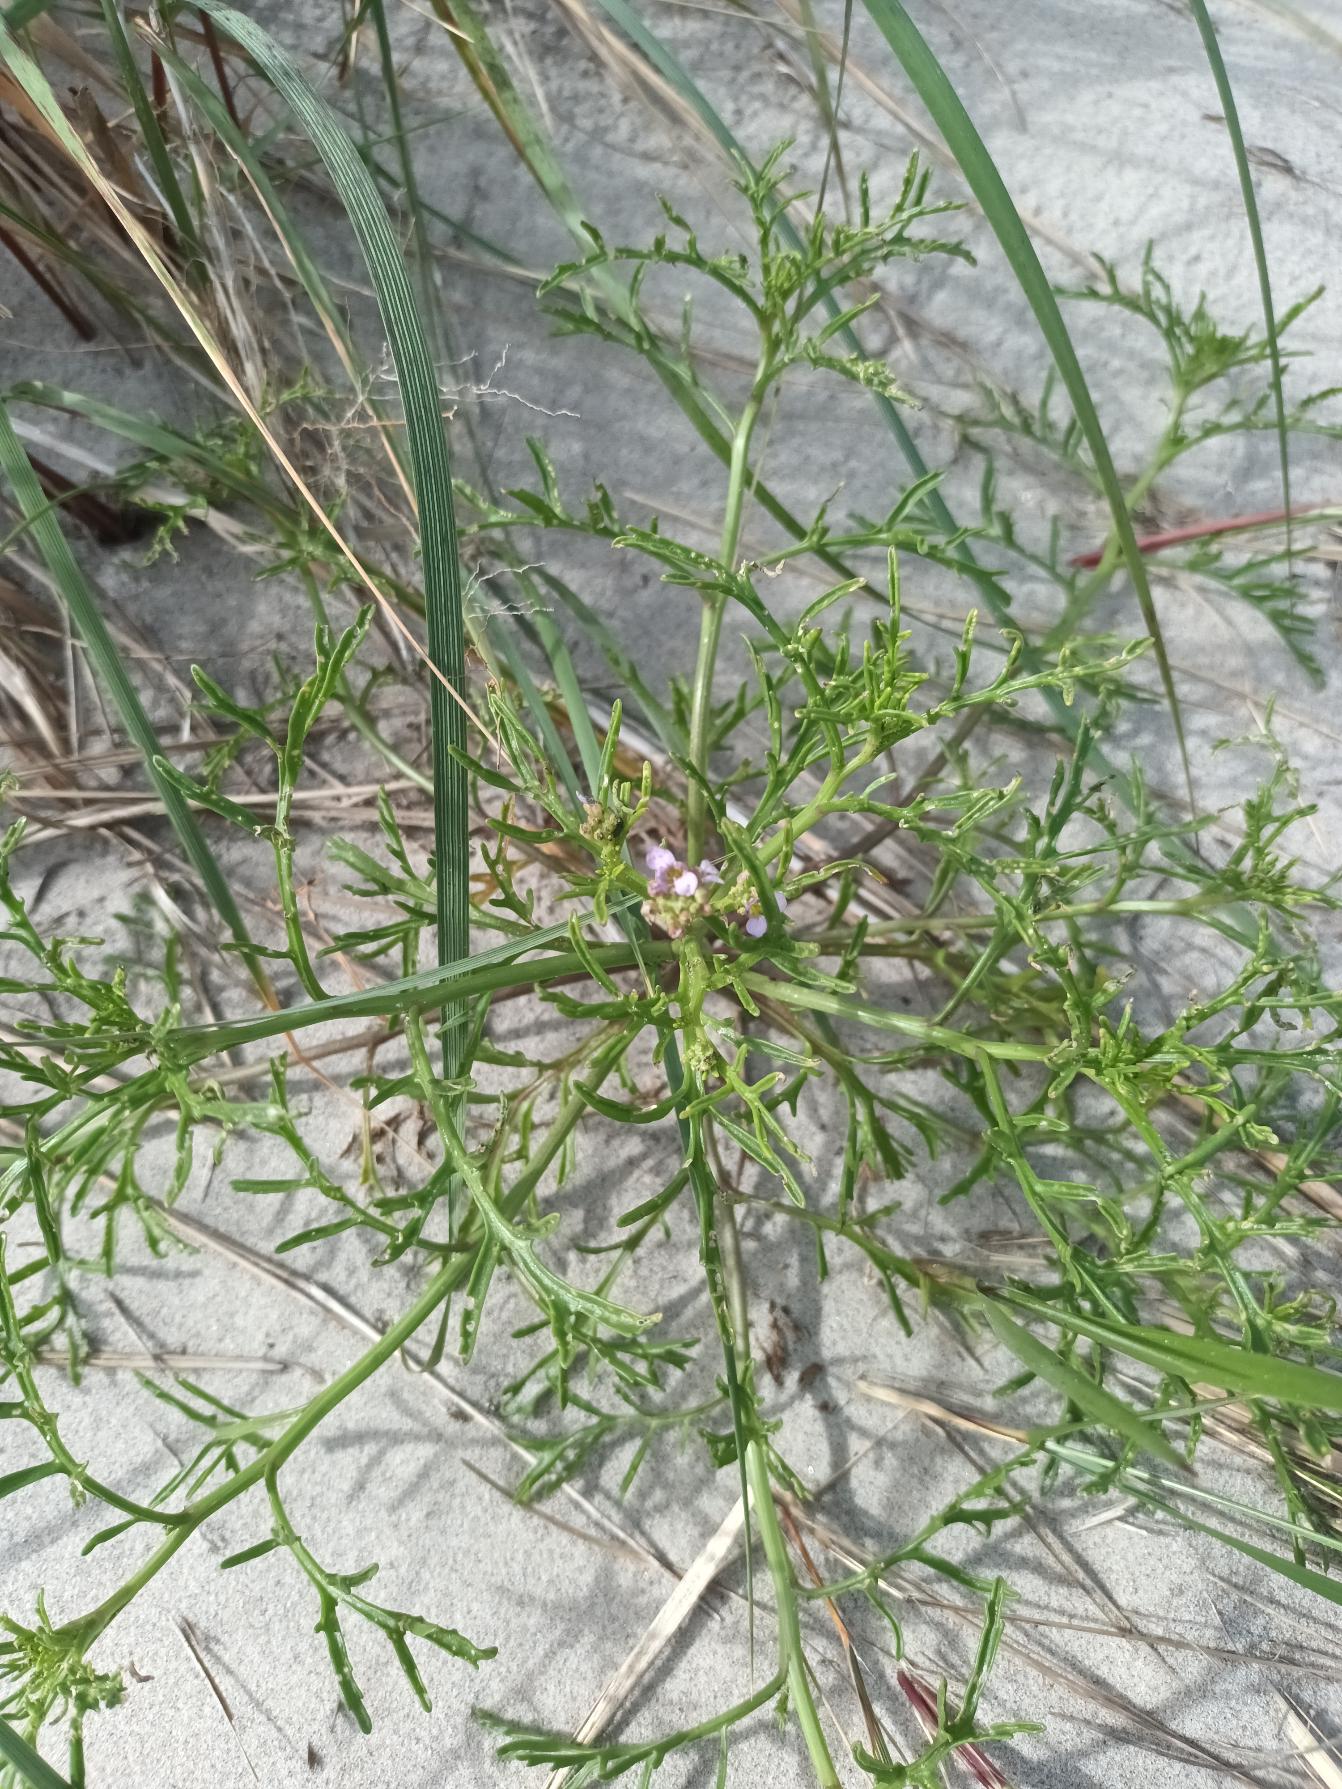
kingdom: Plantae
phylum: Tracheophyta
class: Magnoliopsida
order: Brassicales
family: Brassicaceae
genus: Cakile
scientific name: Cakile maritima
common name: Østersø-strandsennep
